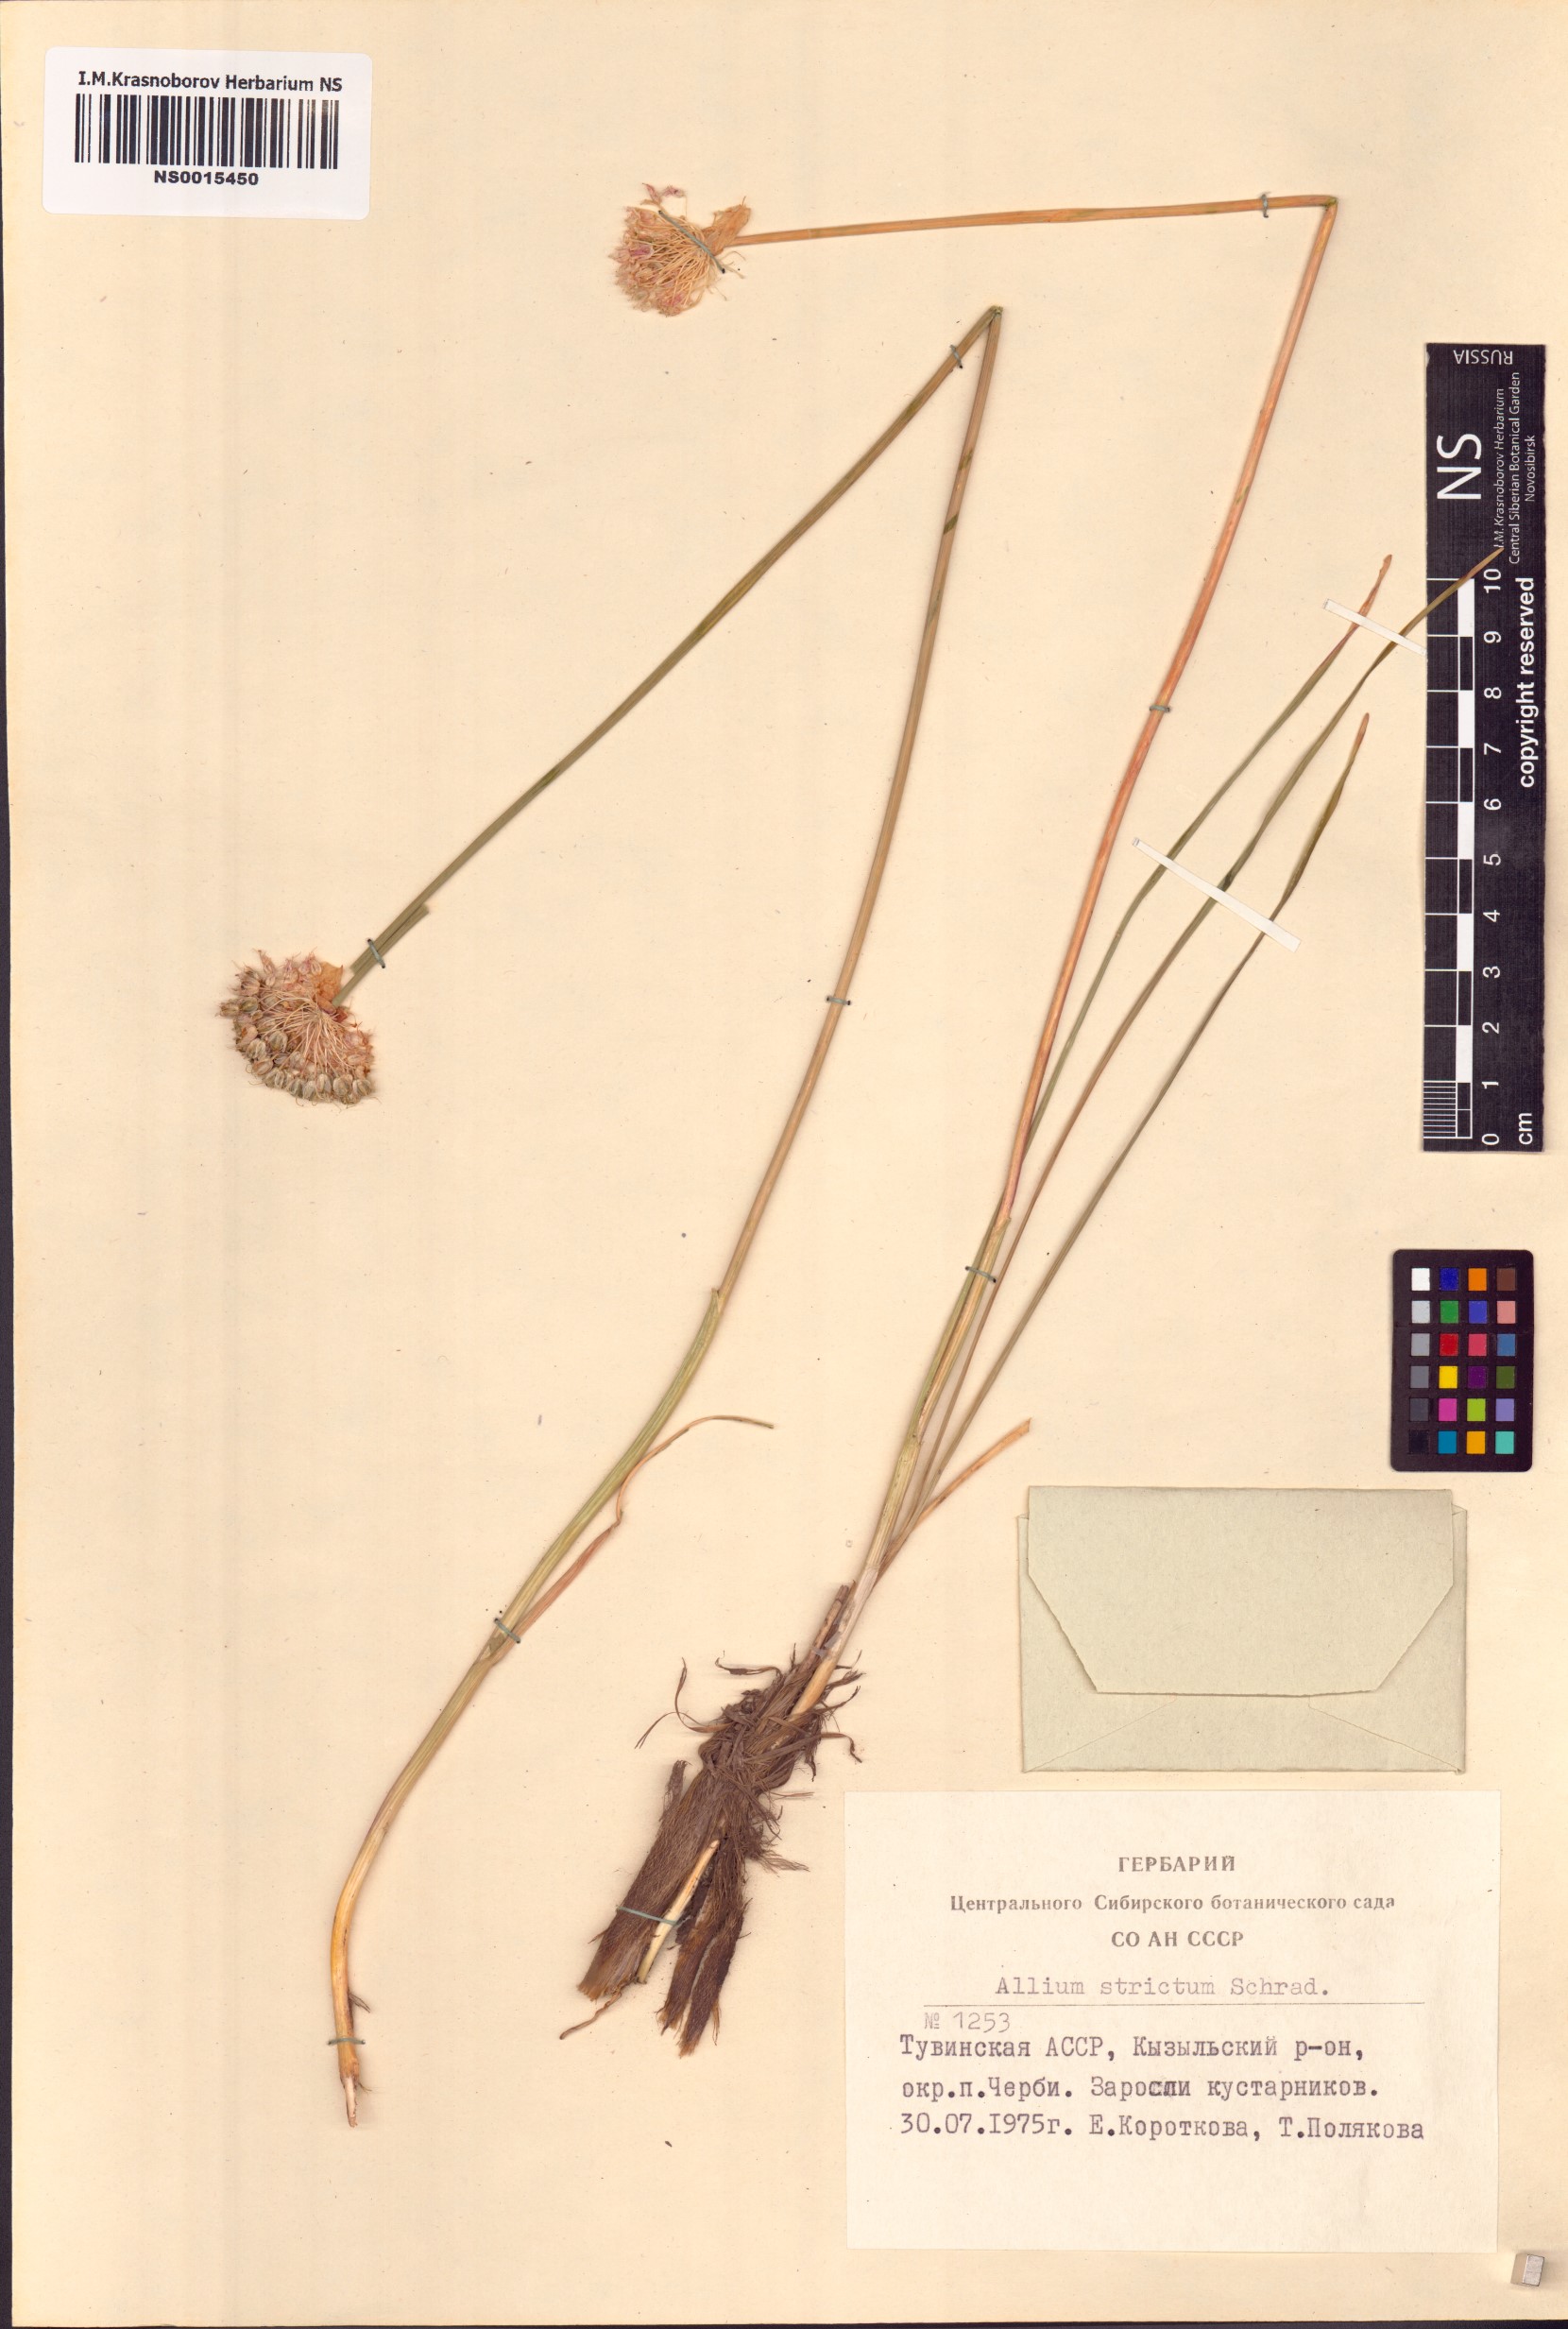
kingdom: Plantae
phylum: Tracheophyta
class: Liliopsida
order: Asparagales
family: Amaryllidaceae
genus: Allium
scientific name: Allium strictum
